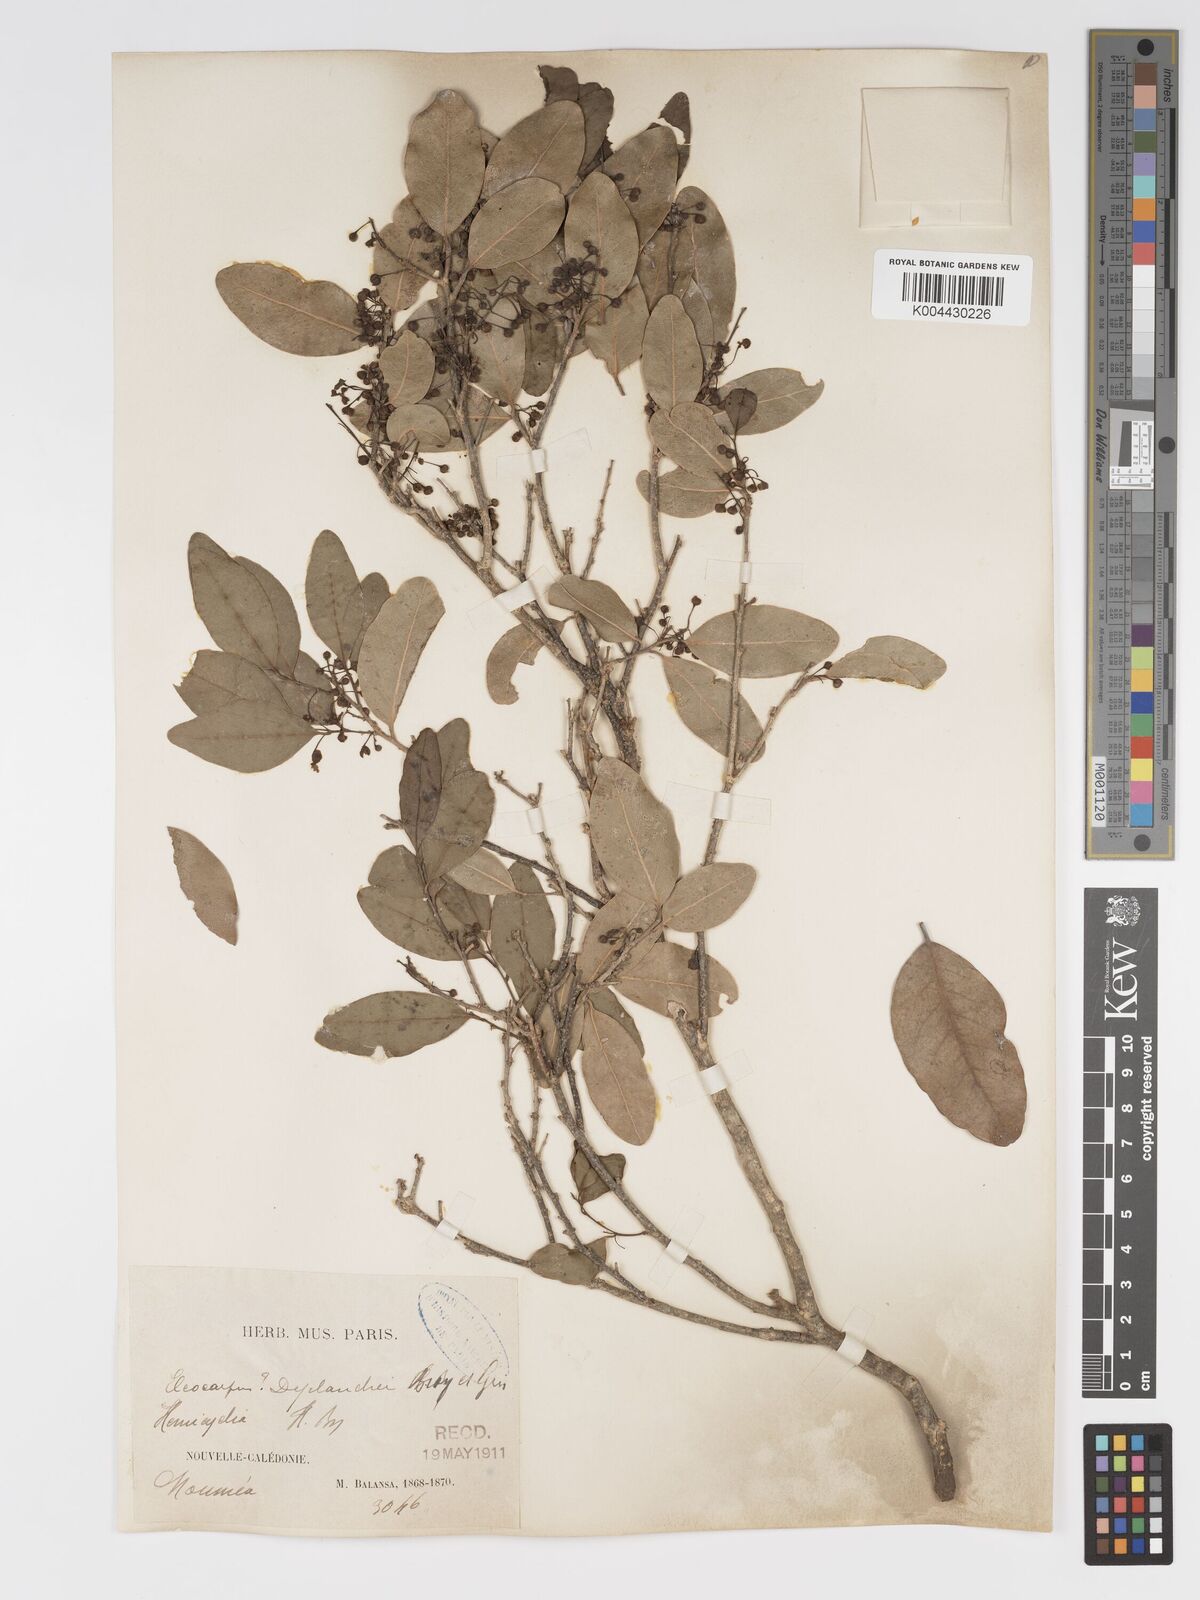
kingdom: Plantae
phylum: Tracheophyta
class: Magnoliopsida
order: Malpighiales
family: Putranjivaceae
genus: Drypetes
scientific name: Drypetes deplanchei
